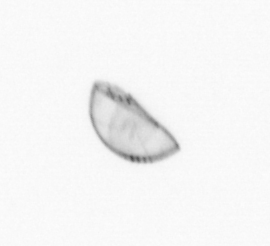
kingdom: Chromista
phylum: Ochrophyta
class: Bacillariophyceae
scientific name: Bacillariophyceae
